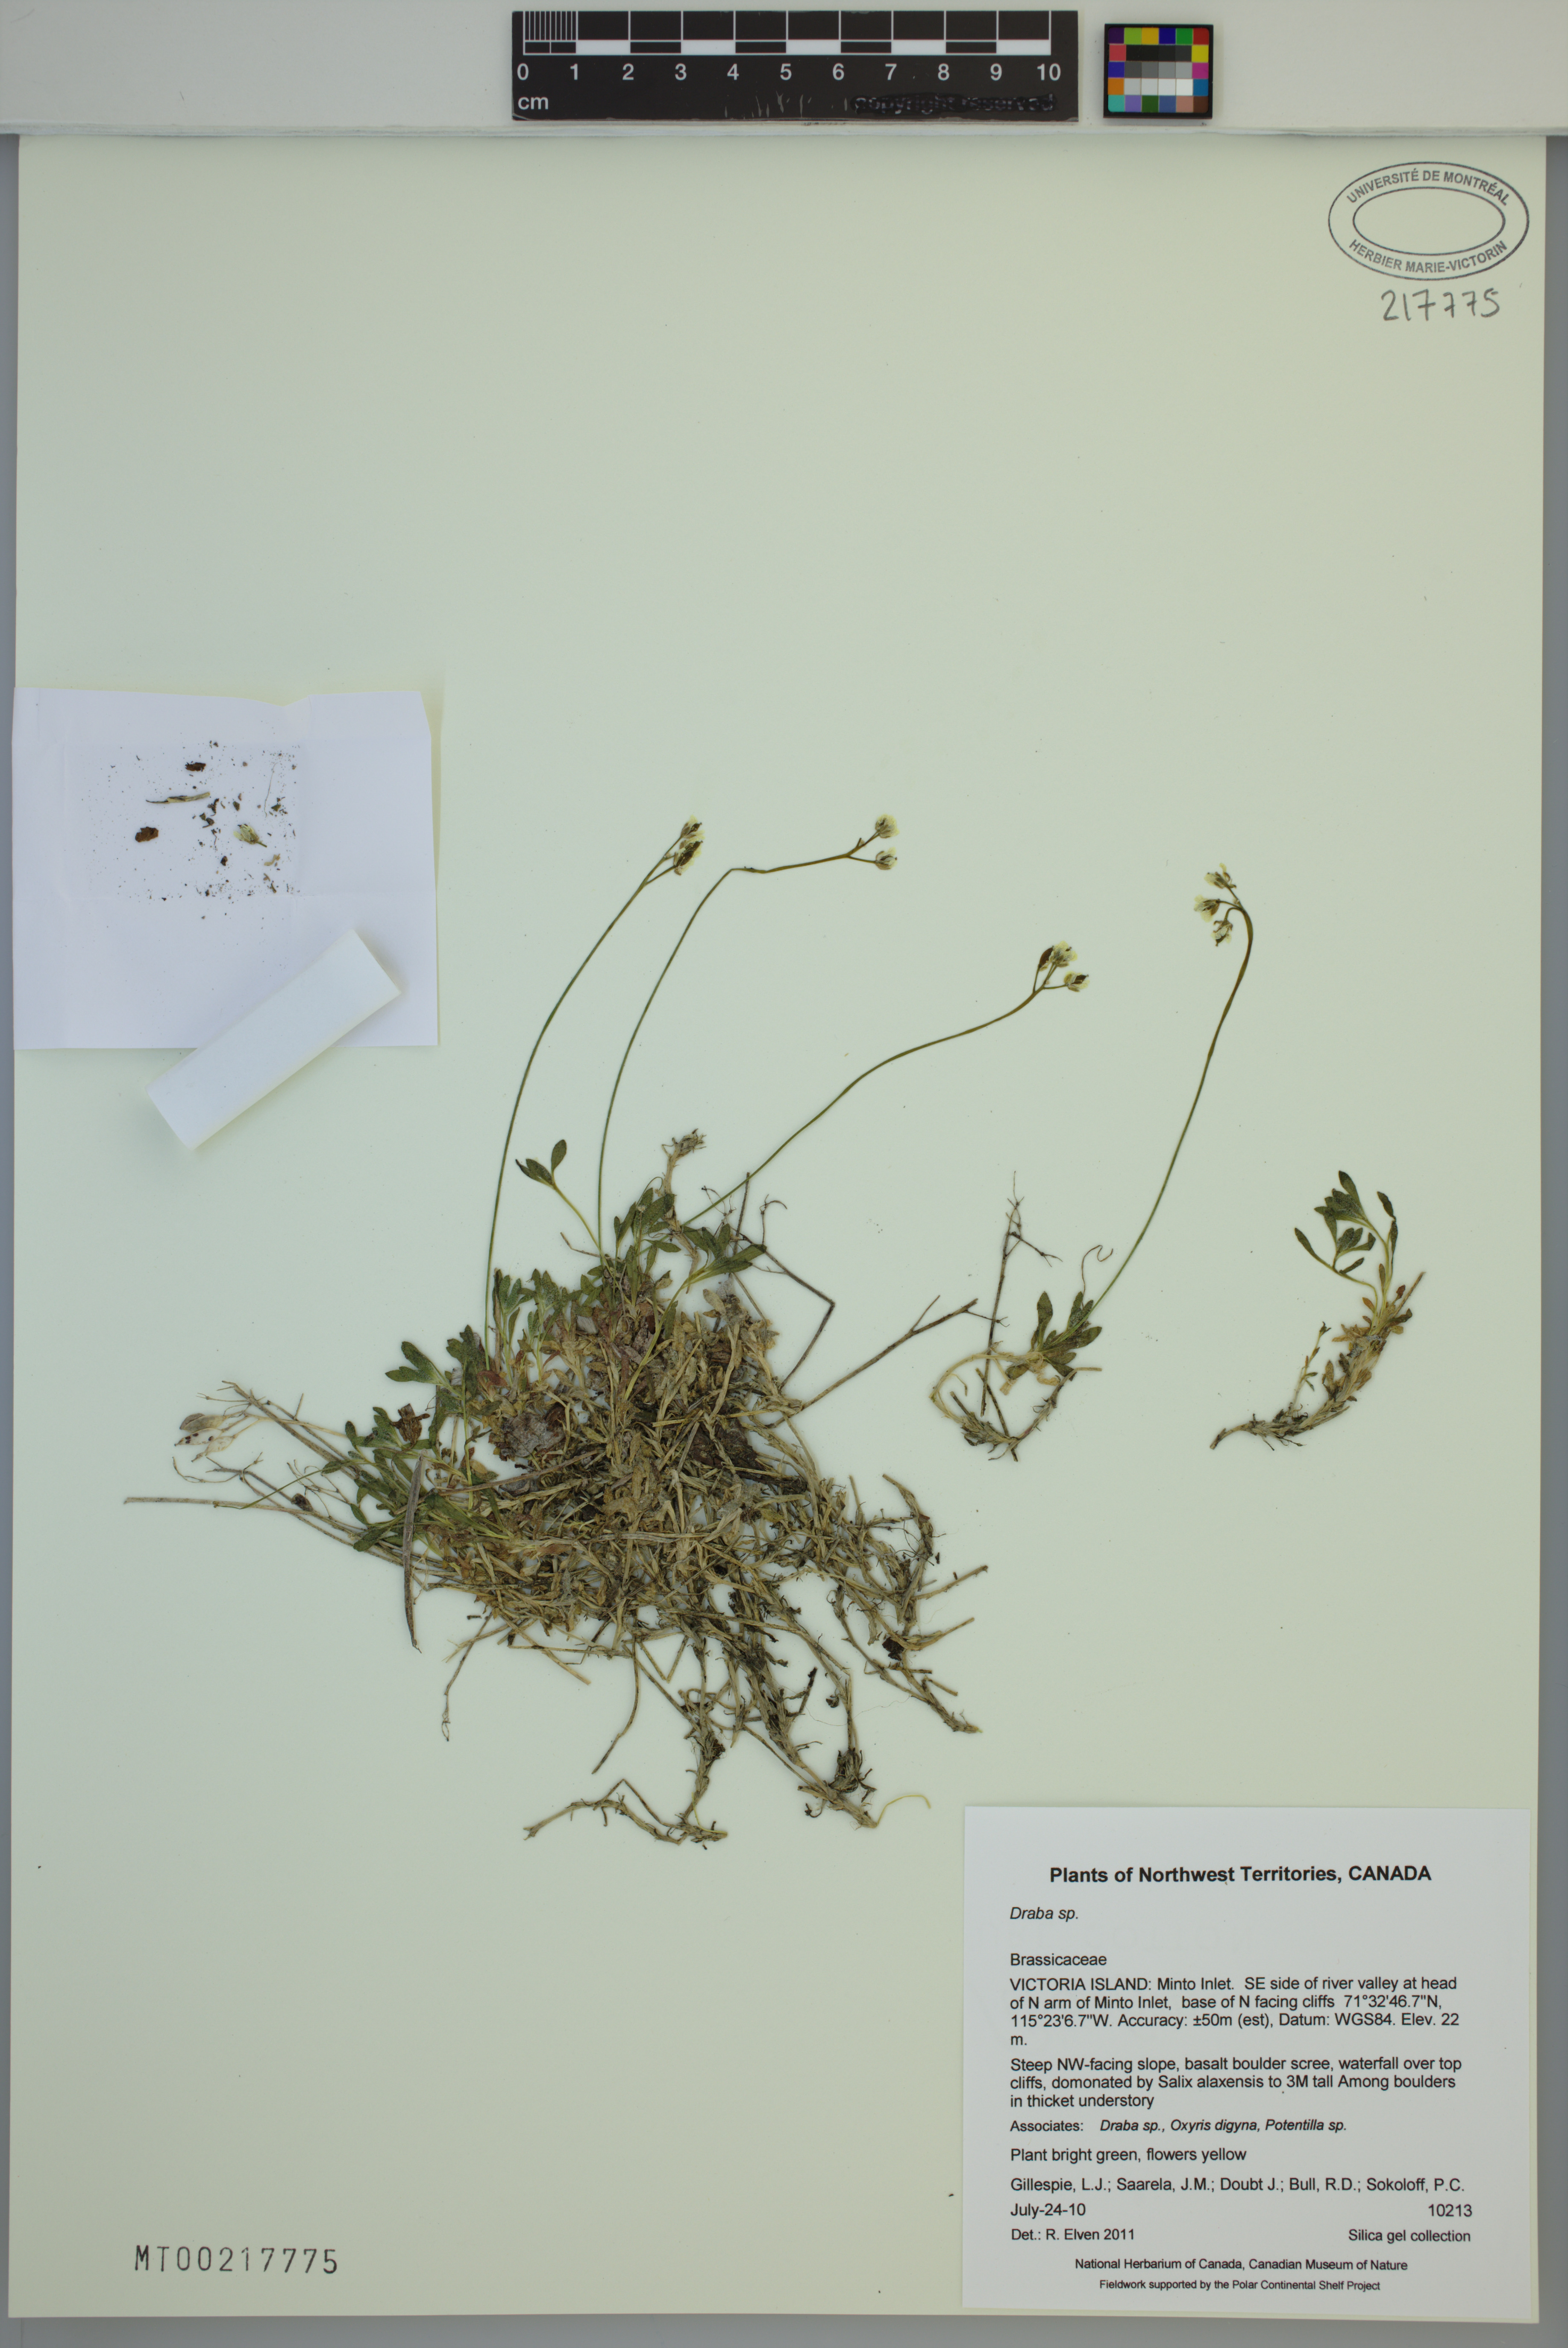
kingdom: Plantae
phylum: Tracheophyta
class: Magnoliopsida
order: Brassicales
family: Brassicaceae
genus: Draba
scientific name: Draba
